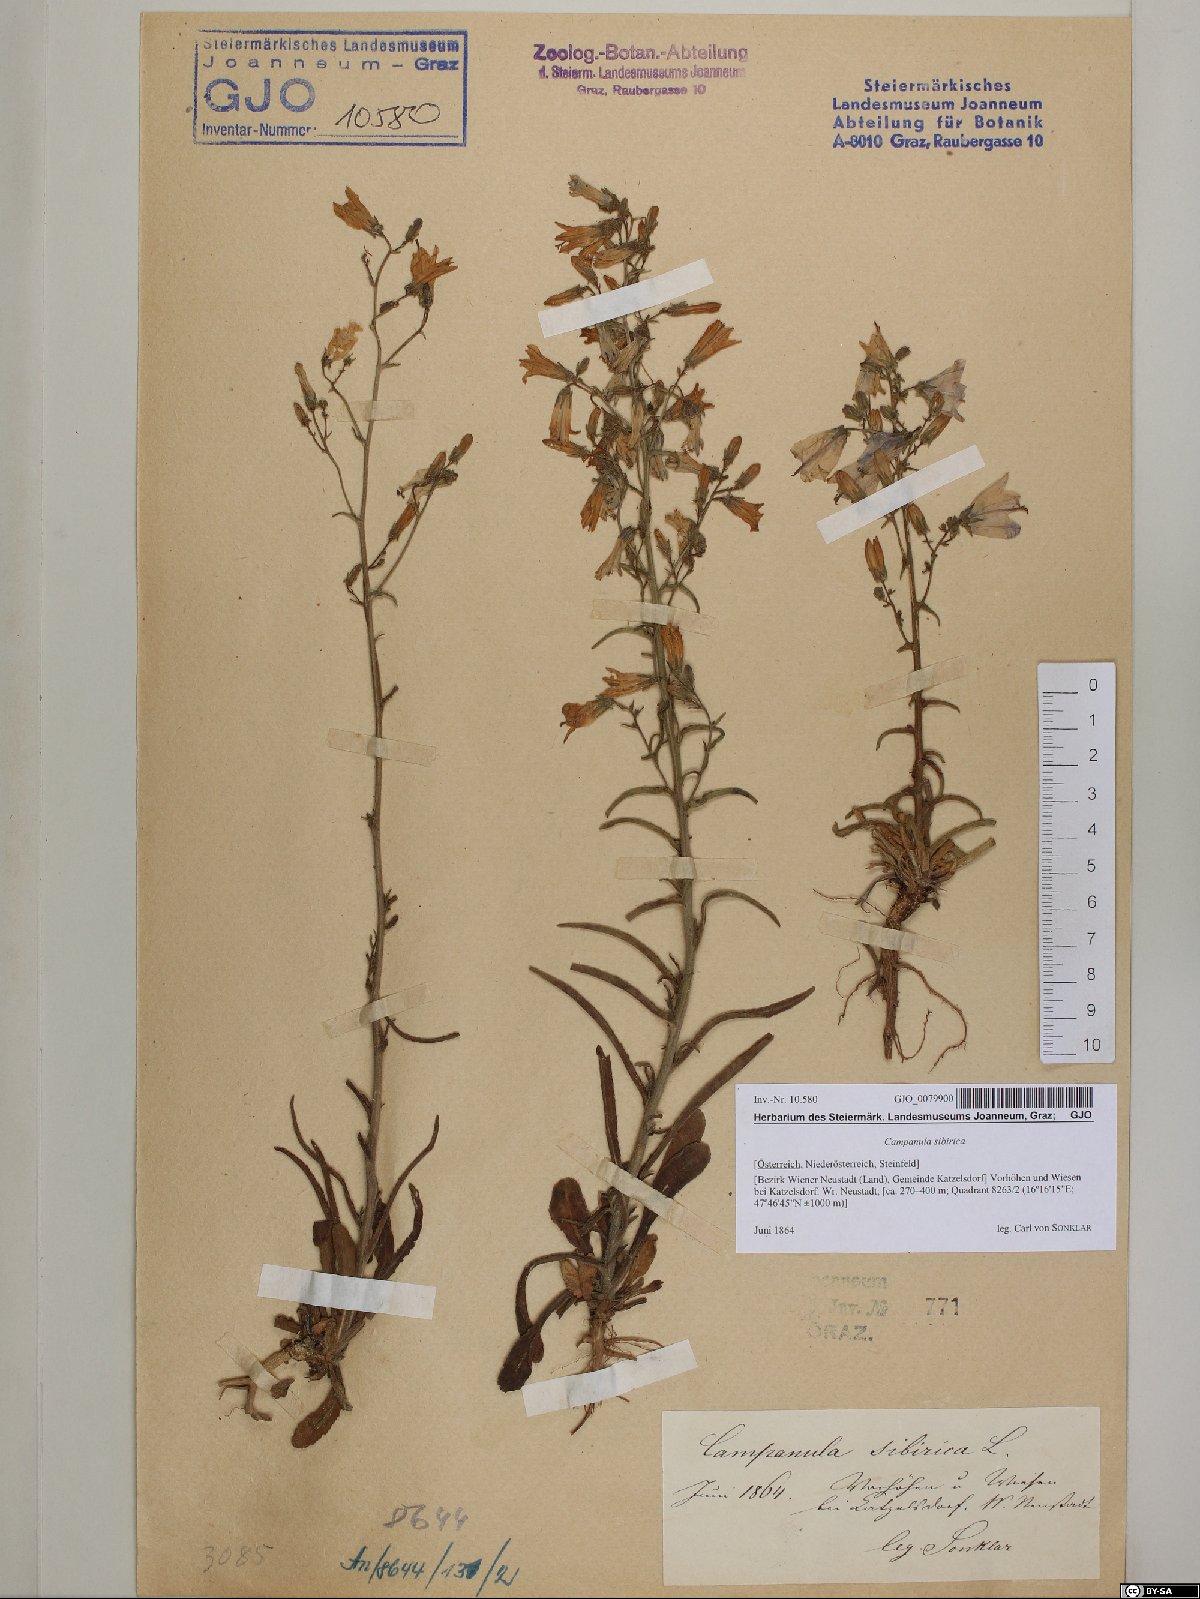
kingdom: Plantae
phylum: Tracheophyta
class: Magnoliopsida
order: Asterales
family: Campanulaceae
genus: Campanula
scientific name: Campanula sibirica
